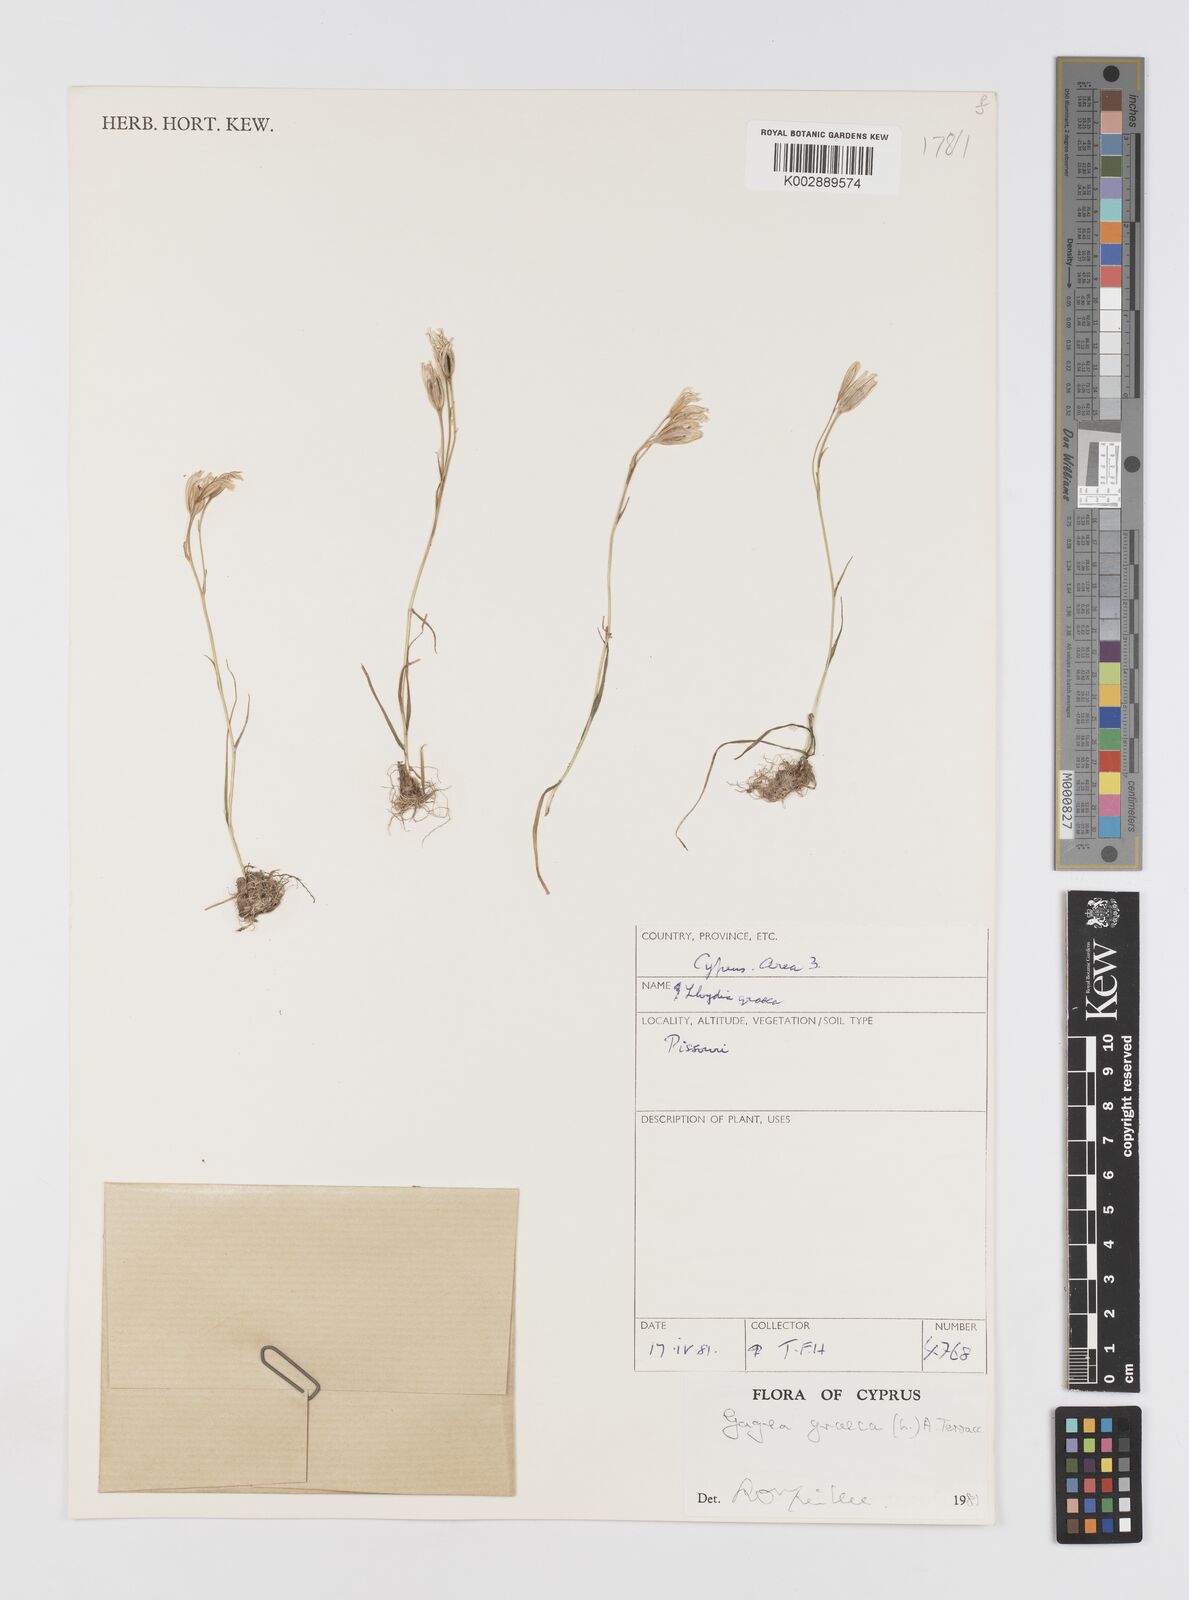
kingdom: Plantae
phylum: Tracheophyta
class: Liliopsida
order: Liliales
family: Liliaceae
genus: Gagea
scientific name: Gagea graeca
